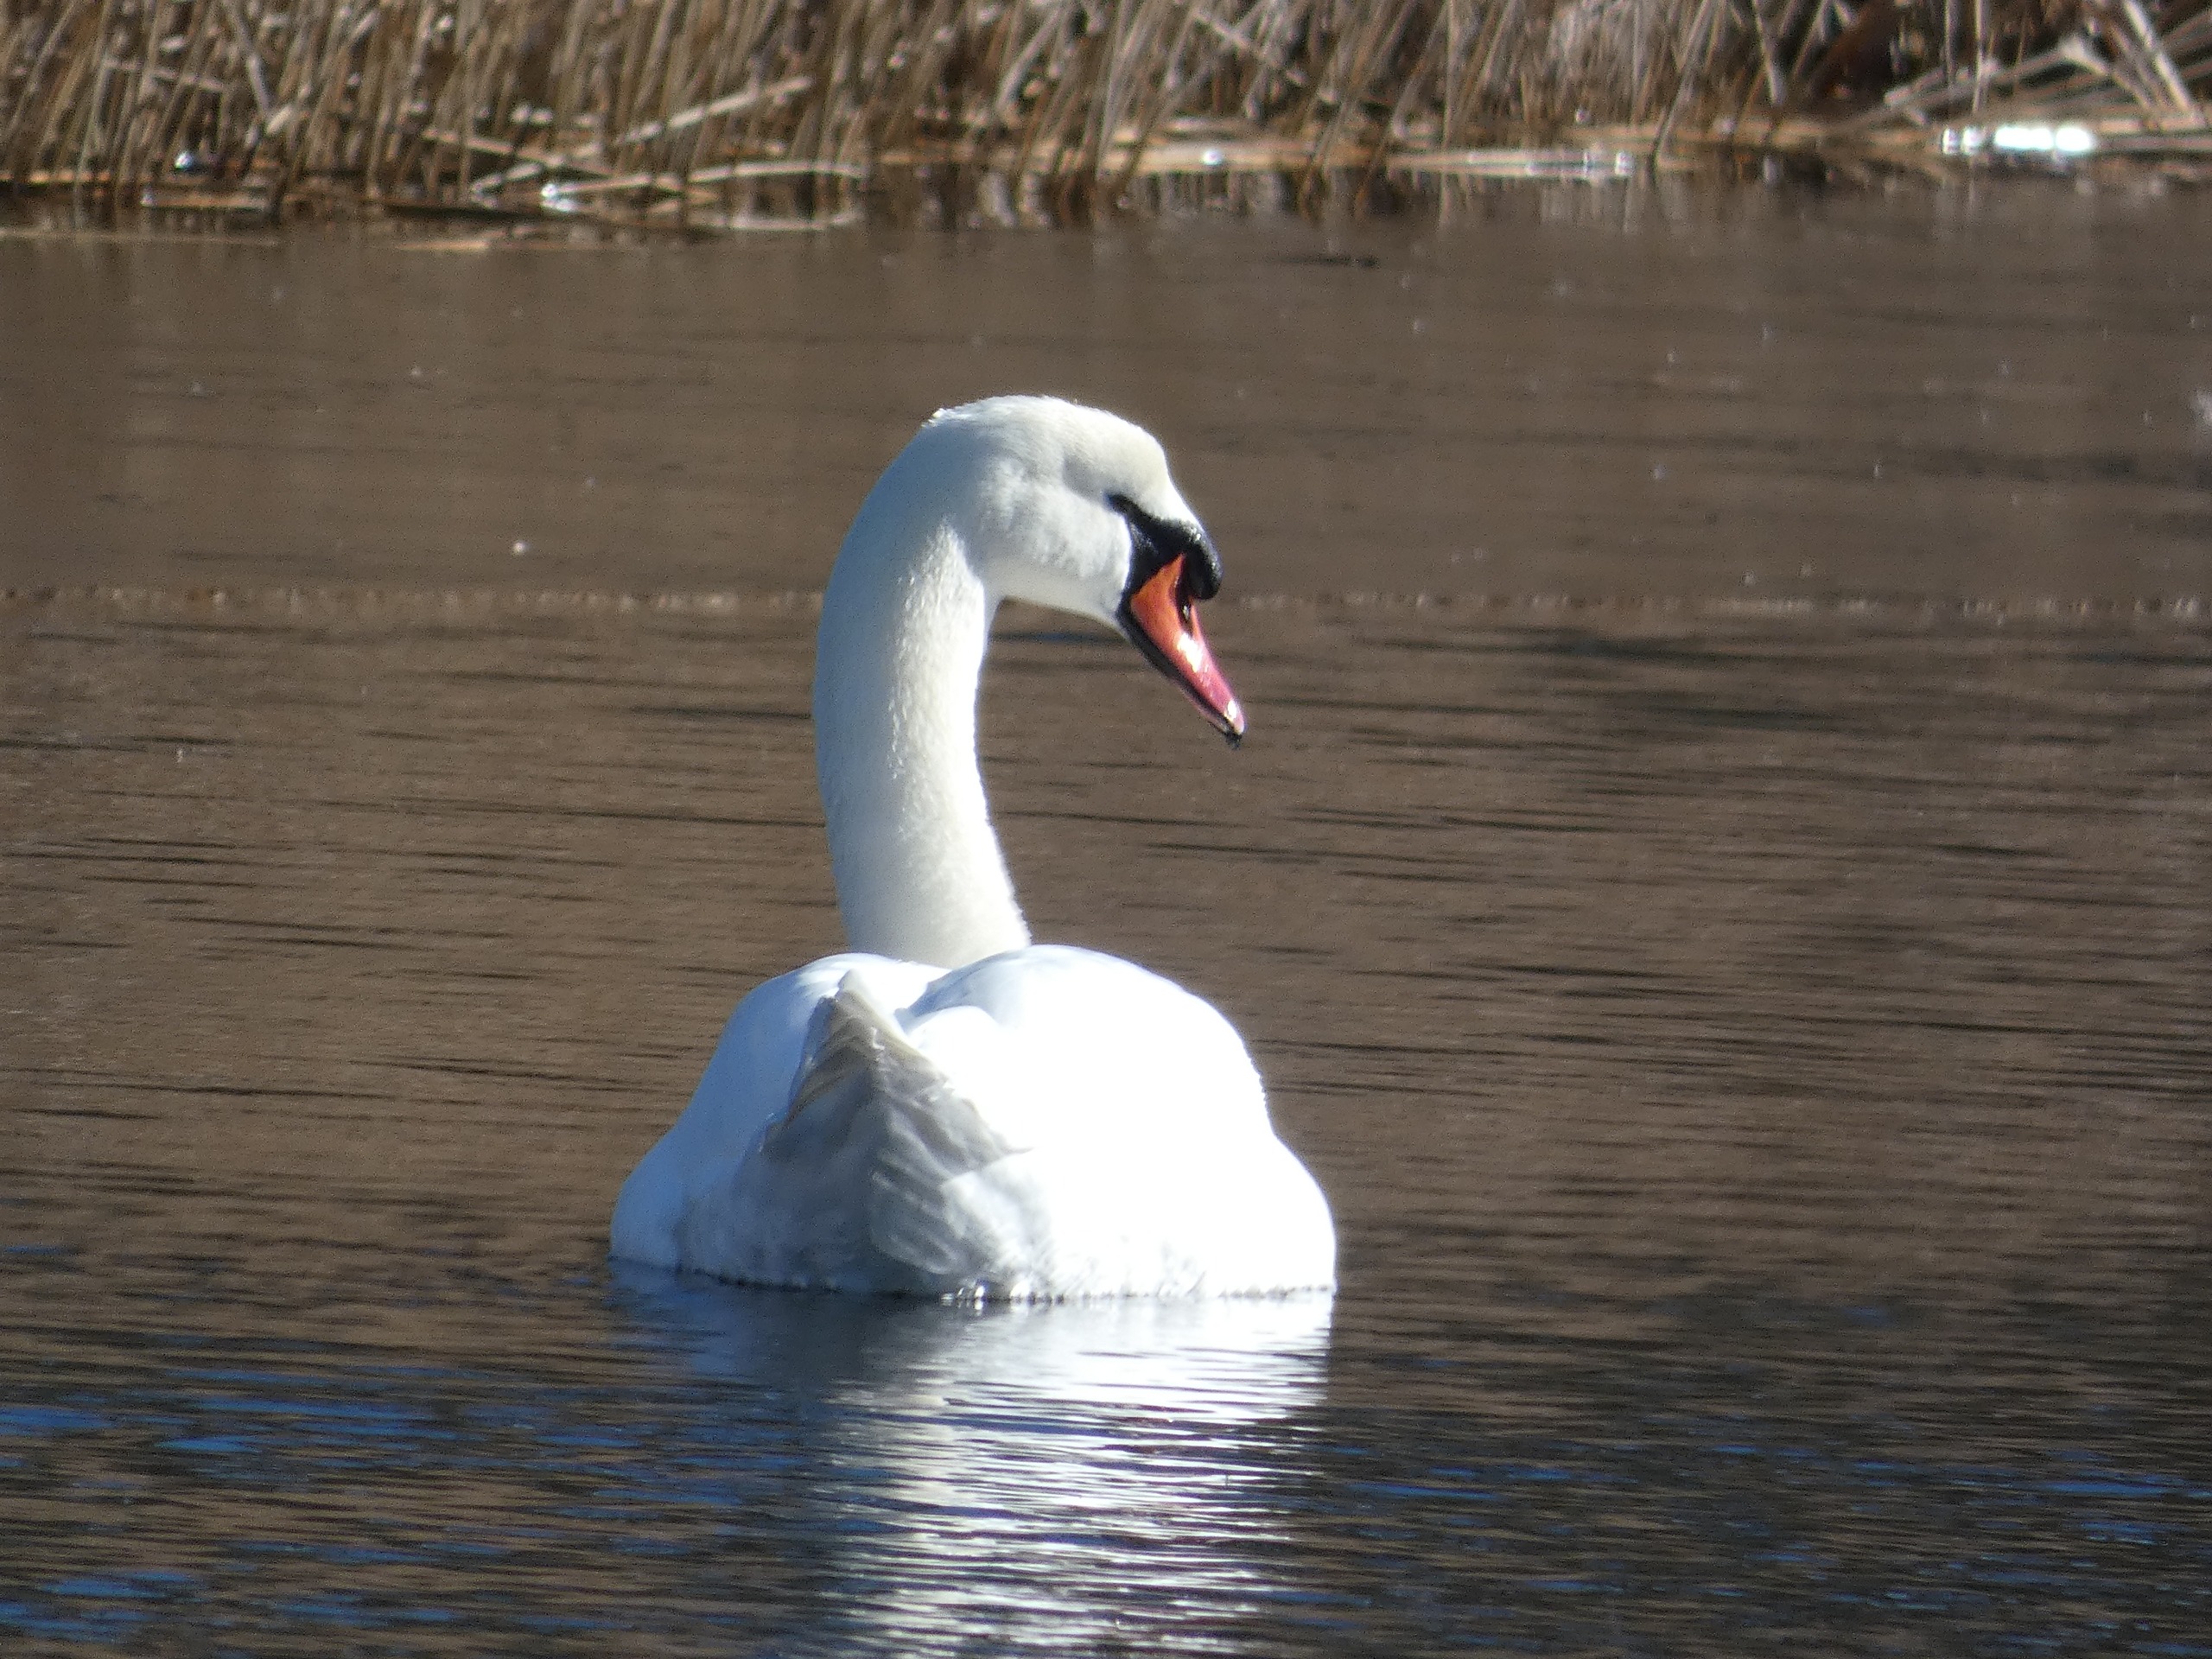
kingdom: Animalia
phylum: Chordata
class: Aves
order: Anseriformes
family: Anatidae
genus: Cygnus
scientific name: Cygnus olor
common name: Knopsvane
